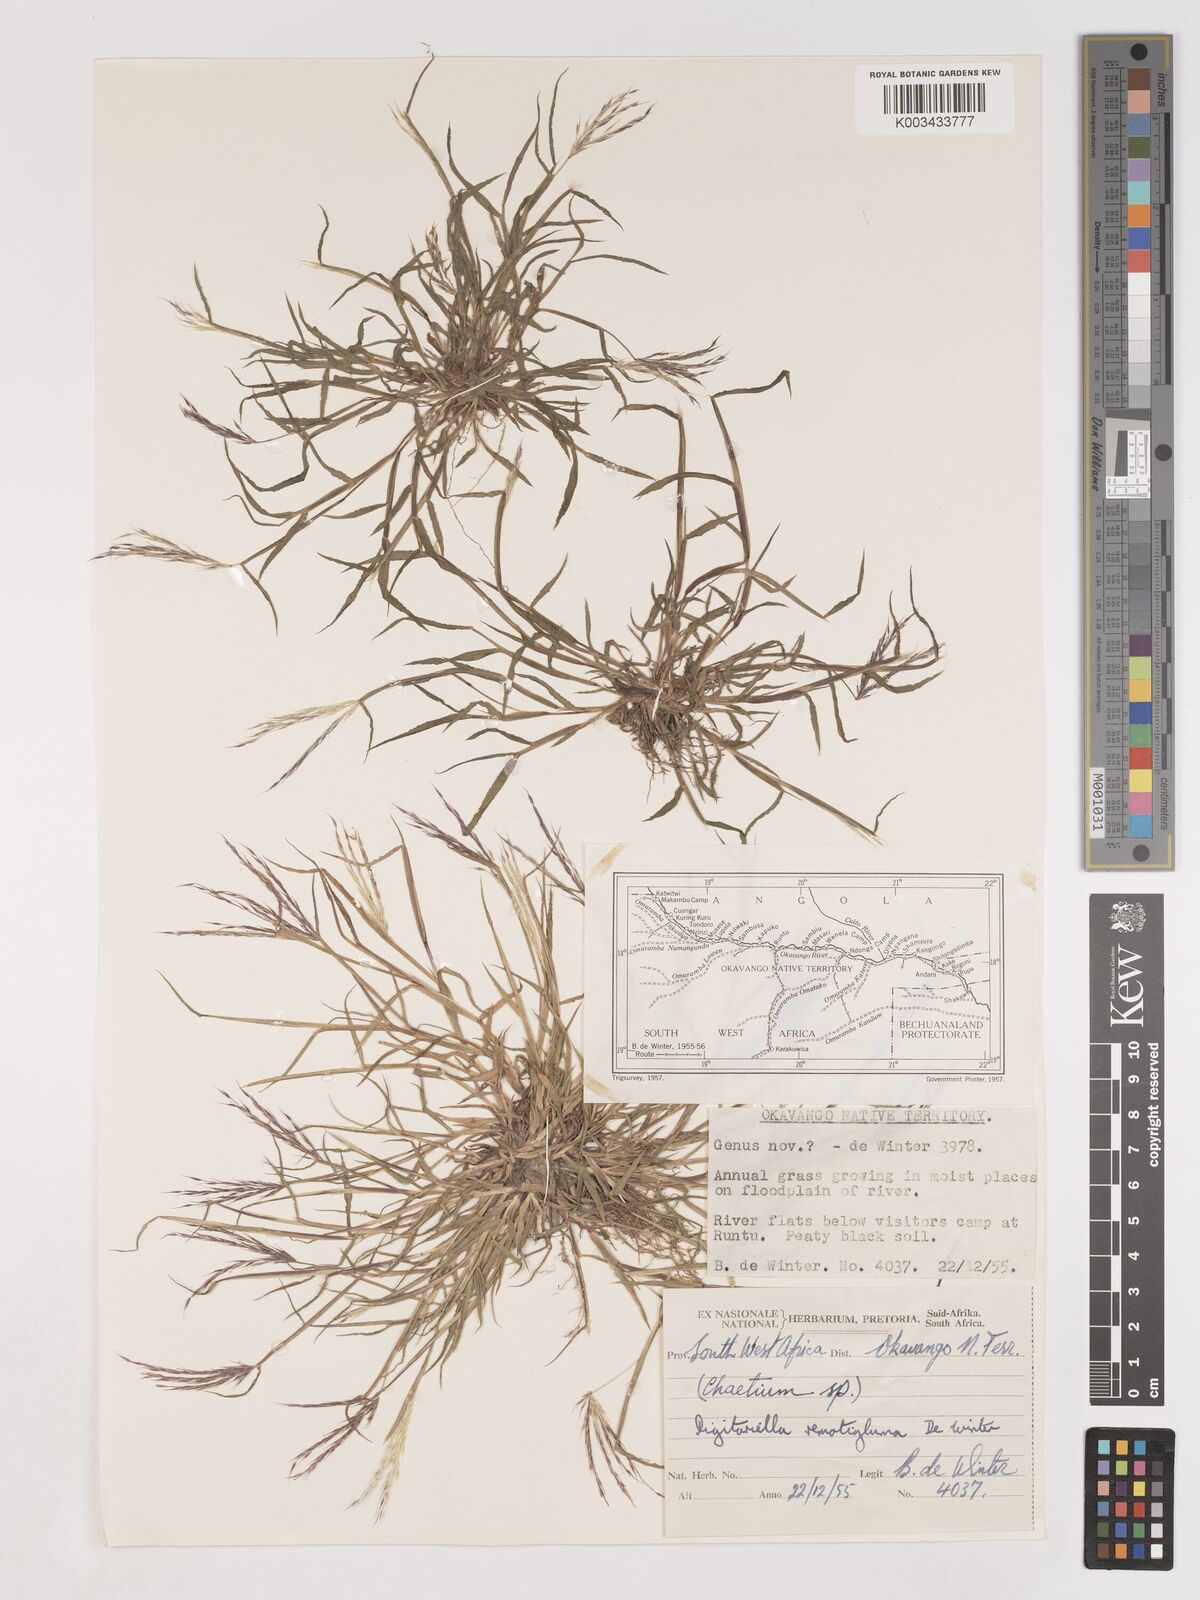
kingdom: Plantae
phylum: Tracheophyta
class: Liliopsida
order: Poales
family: Poaceae
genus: Digitaria
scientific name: Digitaria remotigluma
